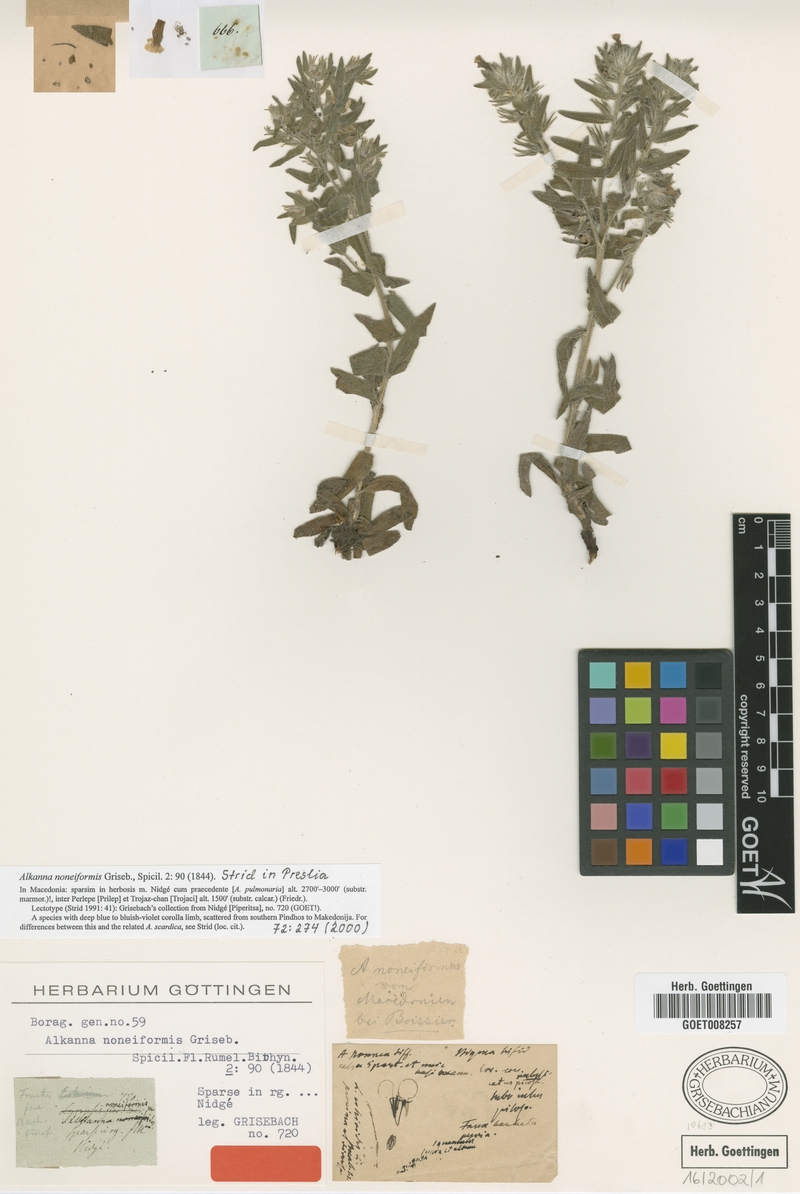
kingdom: Plantae
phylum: Tracheophyta
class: Magnoliopsida
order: Boraginales
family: Boraginaceae
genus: Alkanna
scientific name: Alkanna noneiformis
